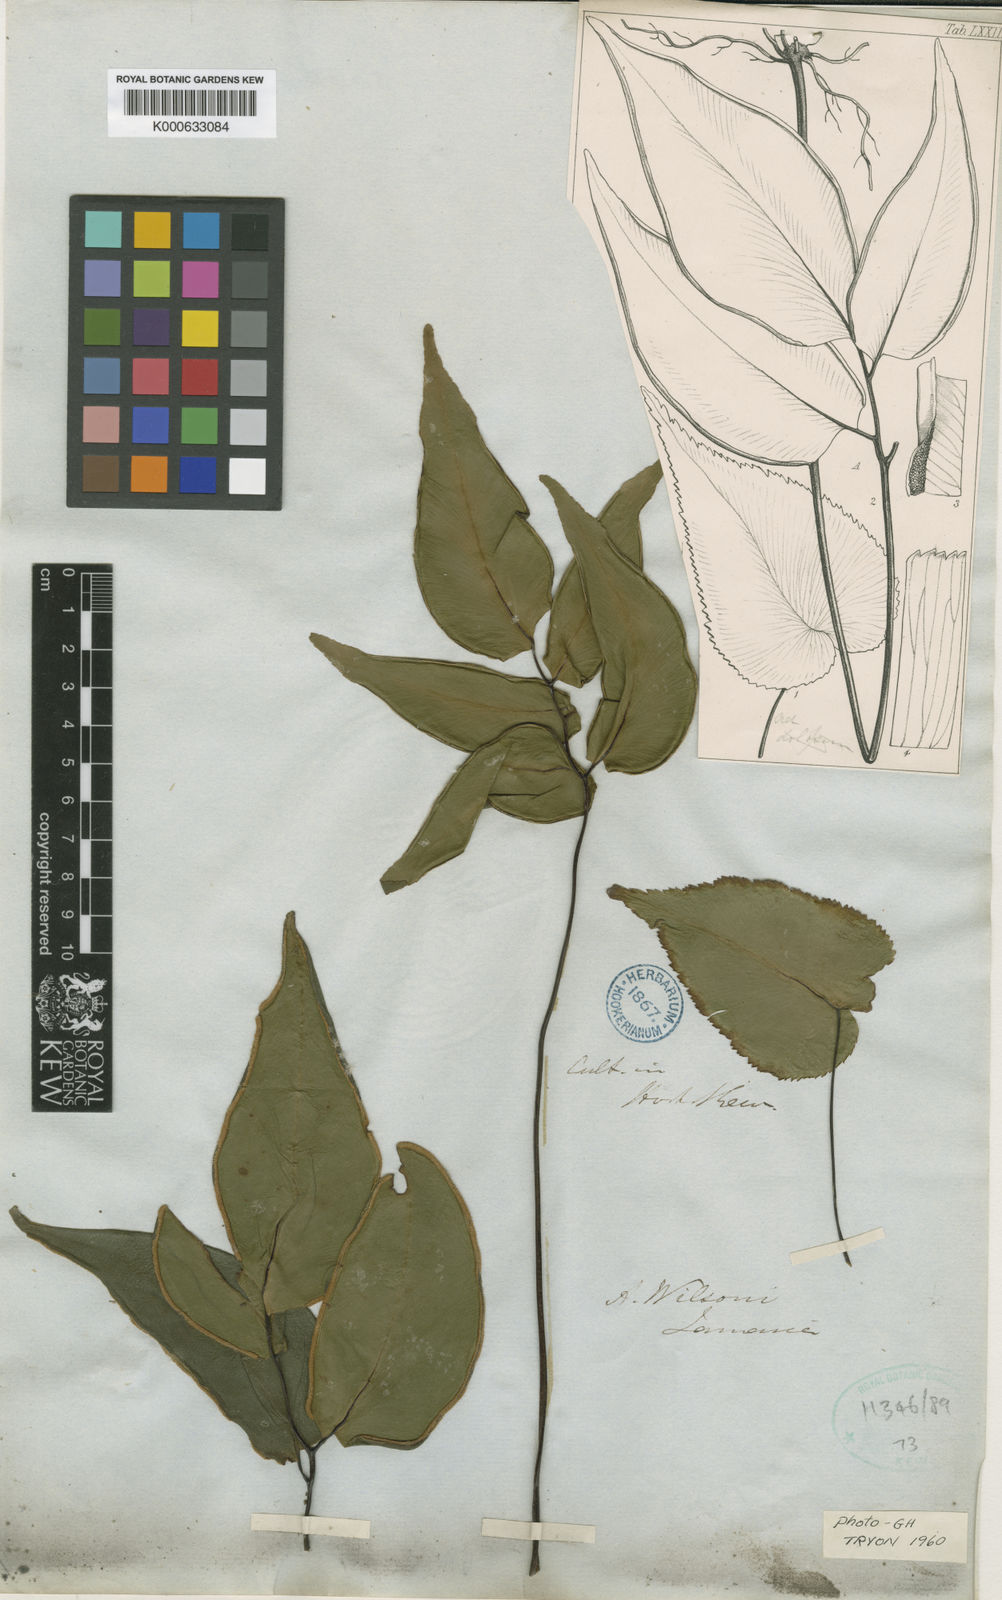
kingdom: Plantae
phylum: Tracheophyta
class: Polypodiopsida
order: Polypodiales
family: Pteridaceae
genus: Adiantum
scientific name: Adiantum wilsonii
